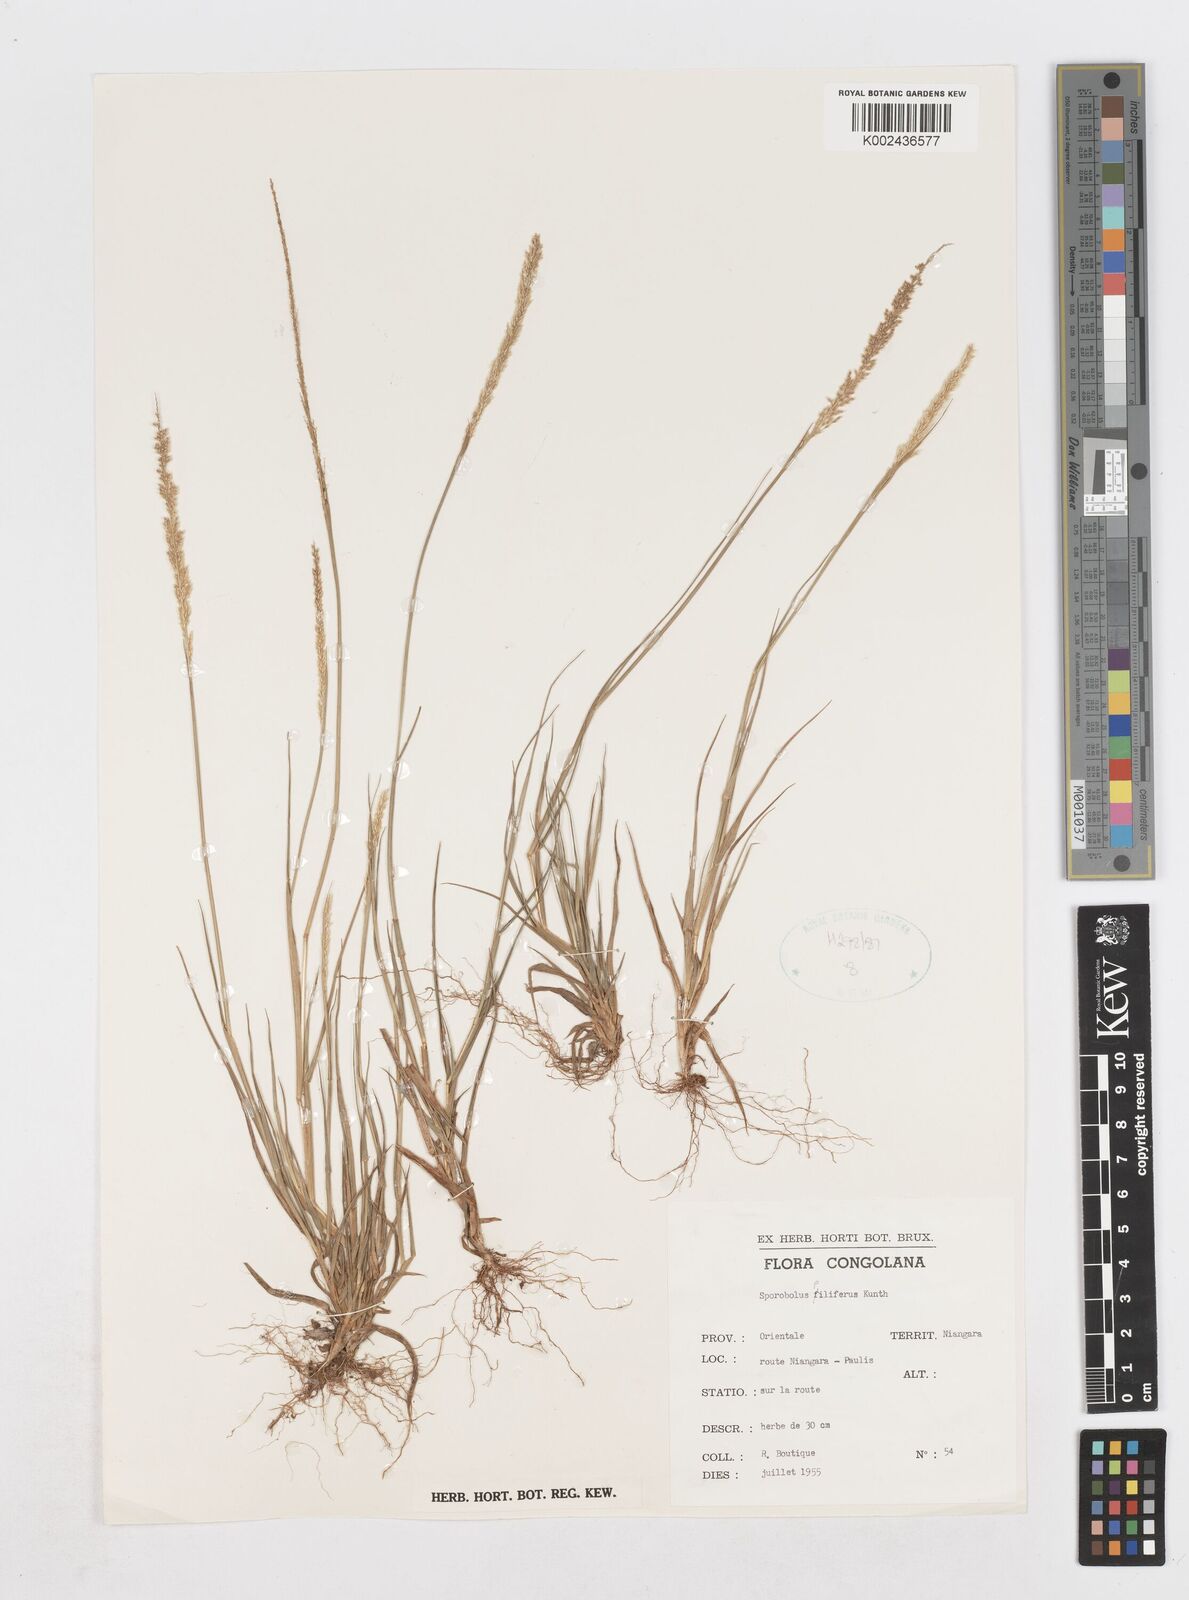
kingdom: Plantae
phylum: Tracheophyta
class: Liliopsida
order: Poales
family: Poaceae
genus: Sporobolus
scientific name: Sporobolus pilifer
